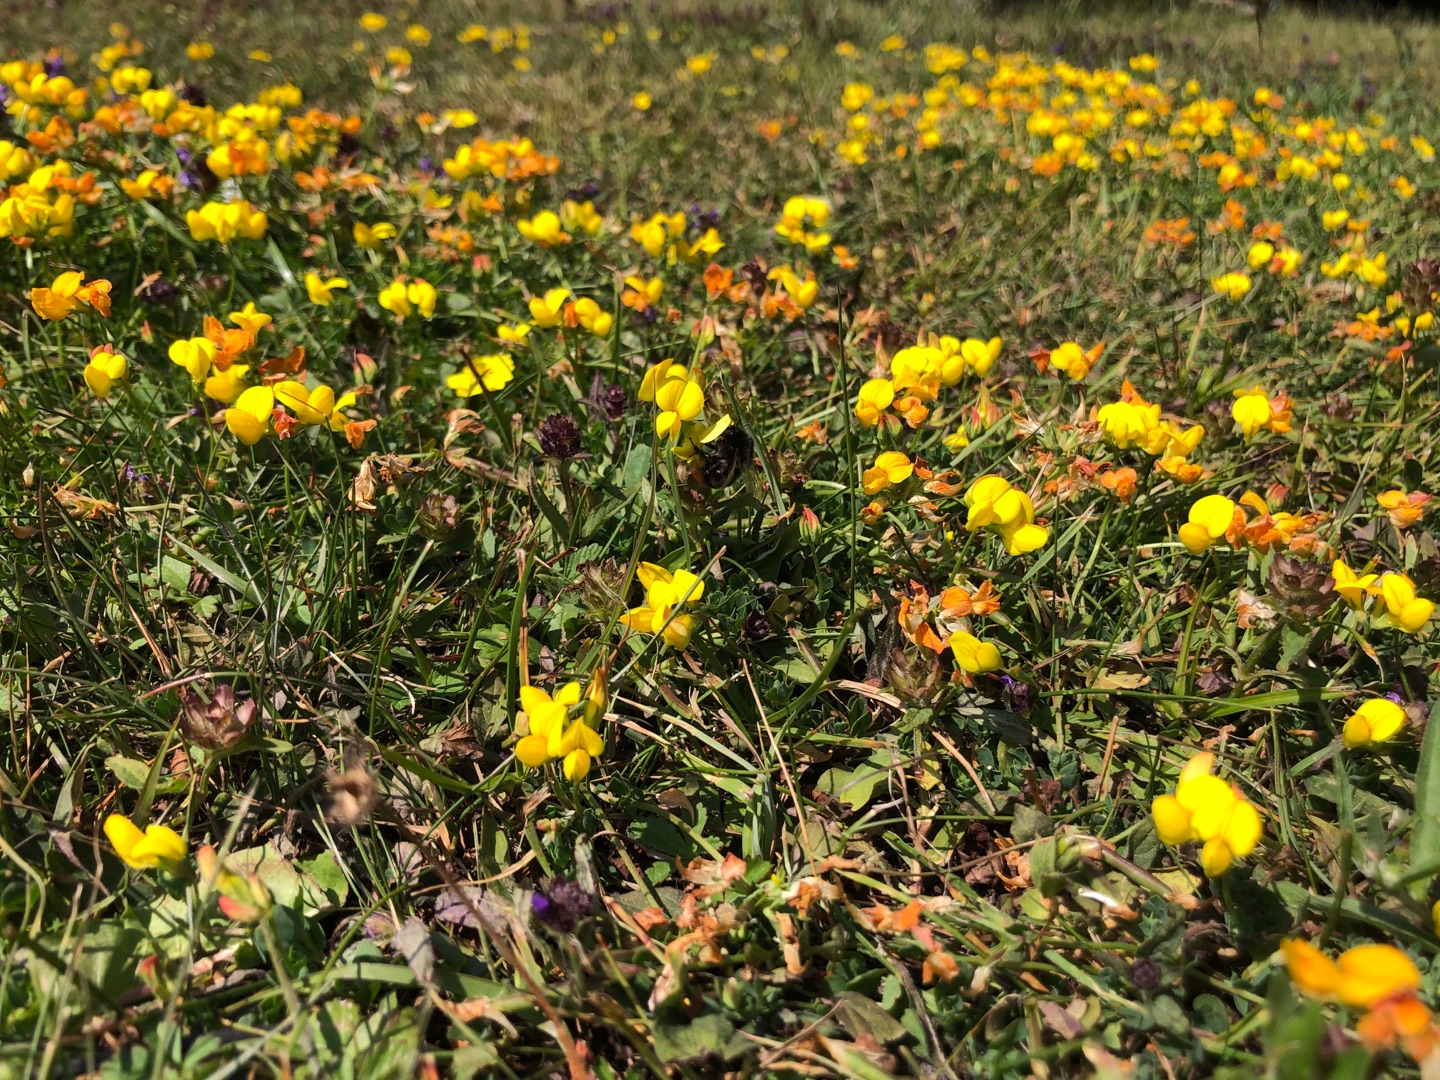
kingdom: Plantae
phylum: Tracheophyta
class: Magnoliopsida
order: Fabales
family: Fabaceae
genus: Lotus
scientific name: Lotus corniculatus
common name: Almindelig kællingetand
